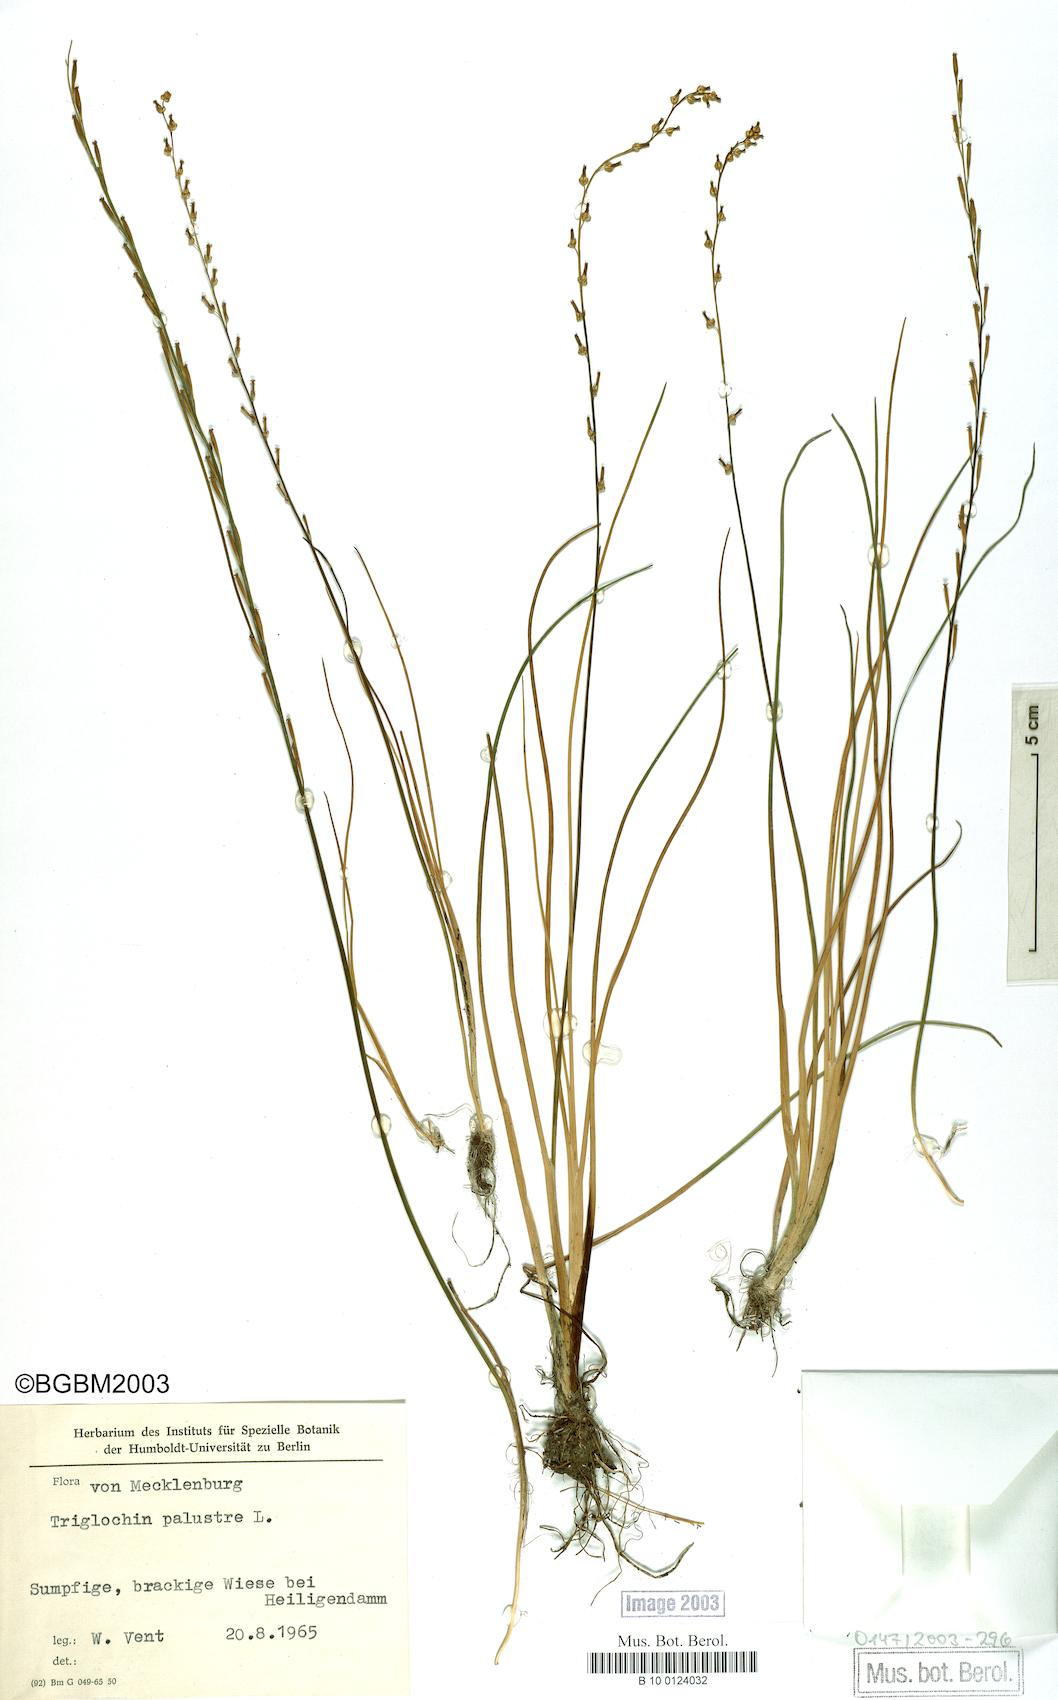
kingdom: Plantae
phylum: Tracheophyta
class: Liliopsida
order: Alismatales
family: Juncaginaceae
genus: Triglochin
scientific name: Triglochin palustris
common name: Marsh arrowgrass
